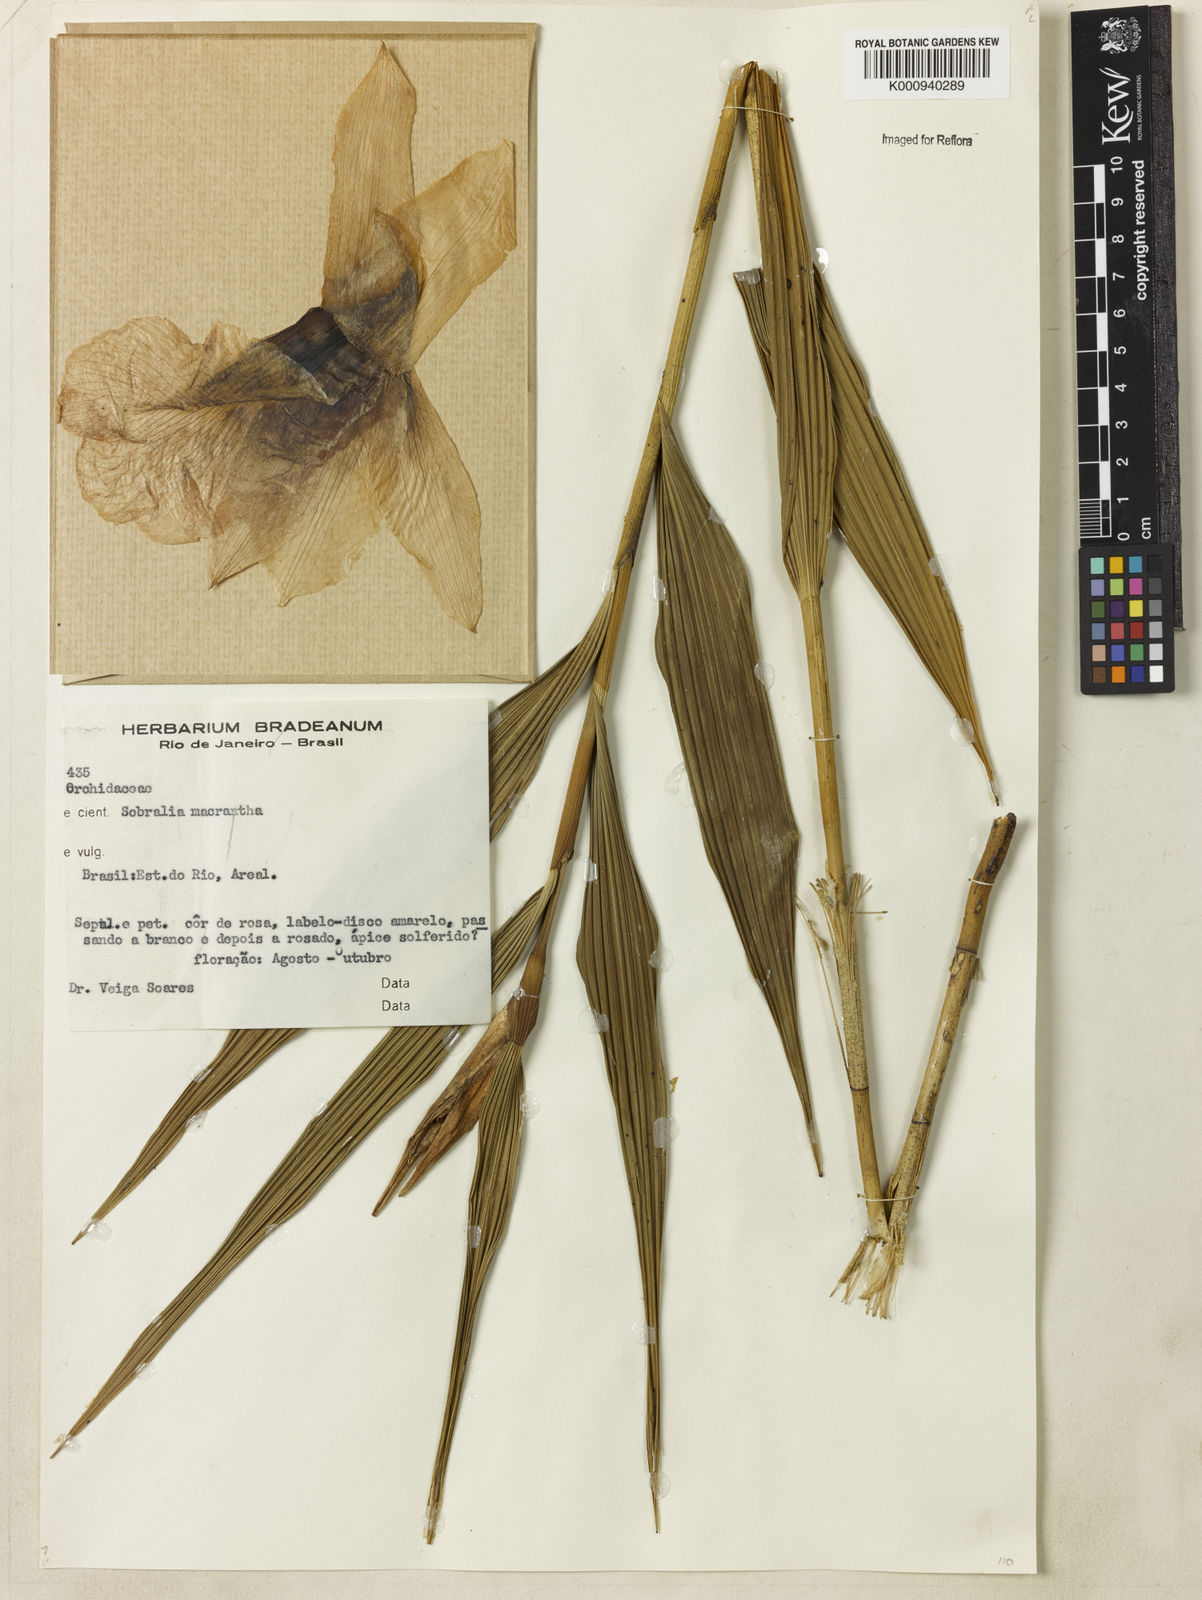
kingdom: Plantae
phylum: Tracheophyta
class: Liliopsida
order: Asparagales
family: Orchidaceae
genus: Sobralia
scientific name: Sobralia macrantha
